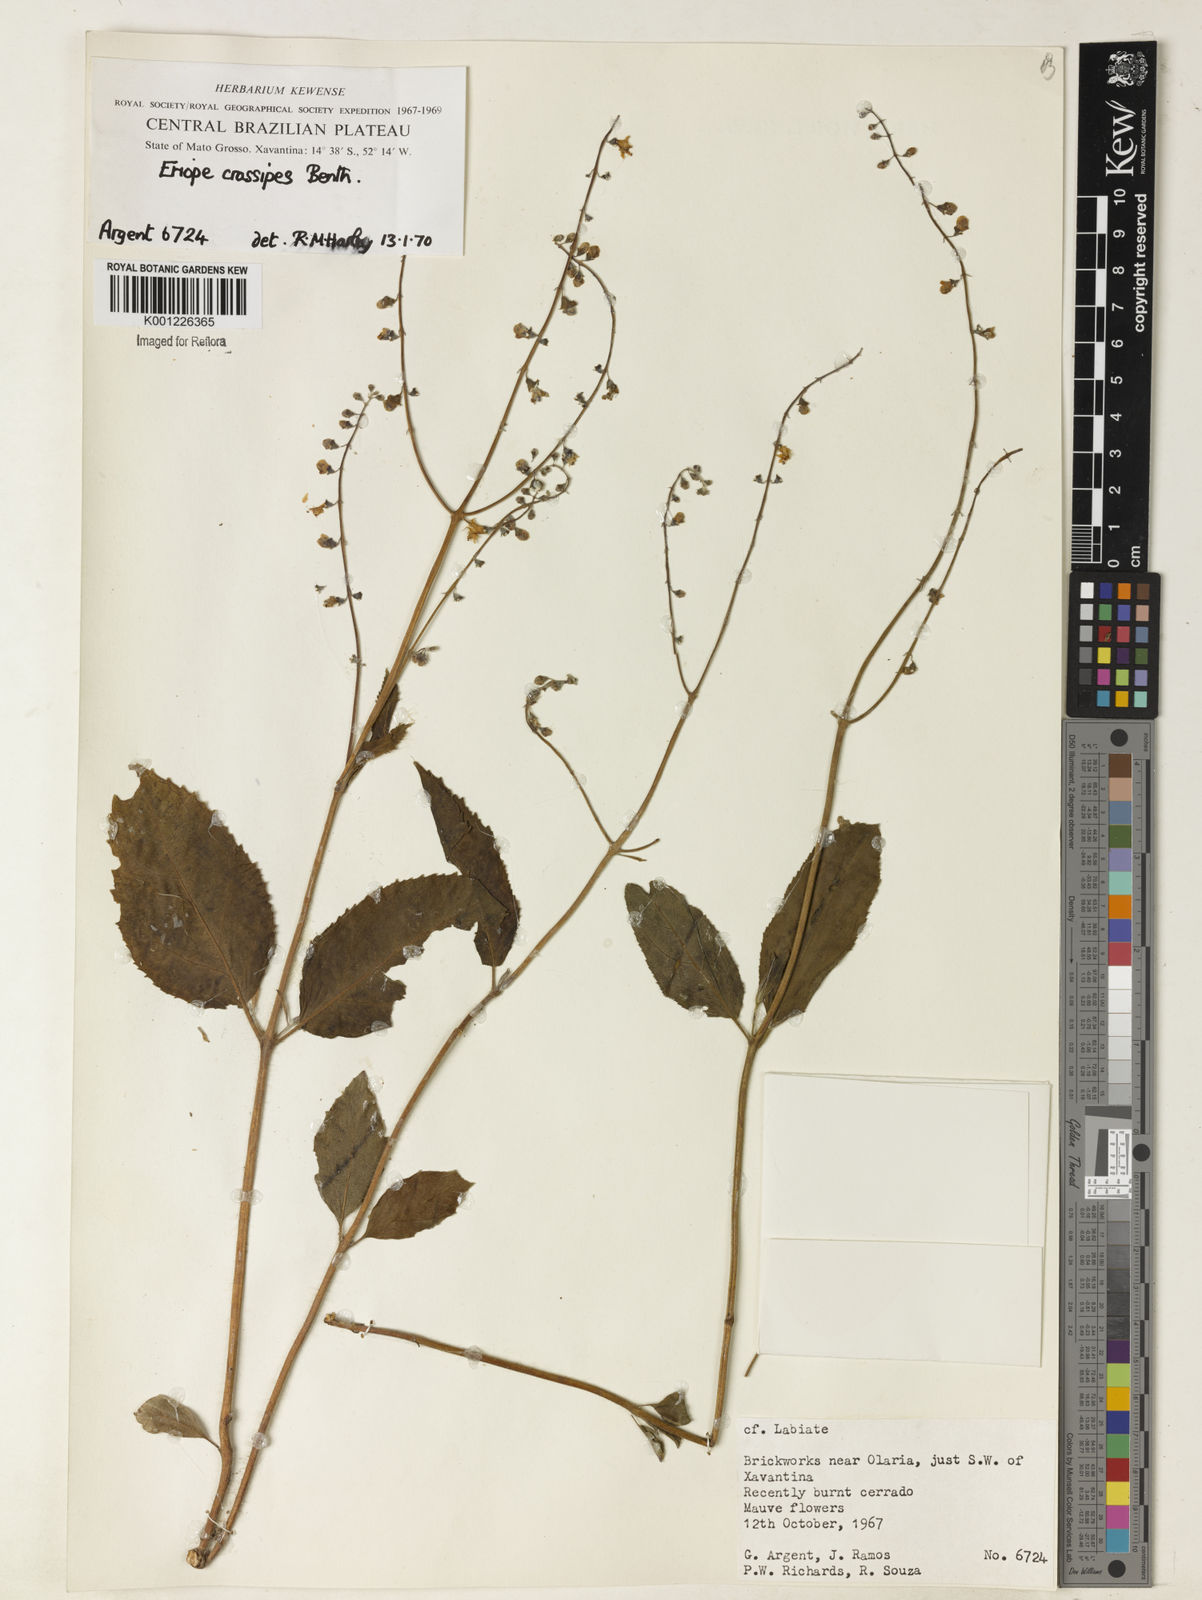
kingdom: Plantae
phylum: Tracheophyta
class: Magnoliopsida
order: Lamiales
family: Lamiaceae
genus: Eriope
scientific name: Eriope crassipes
